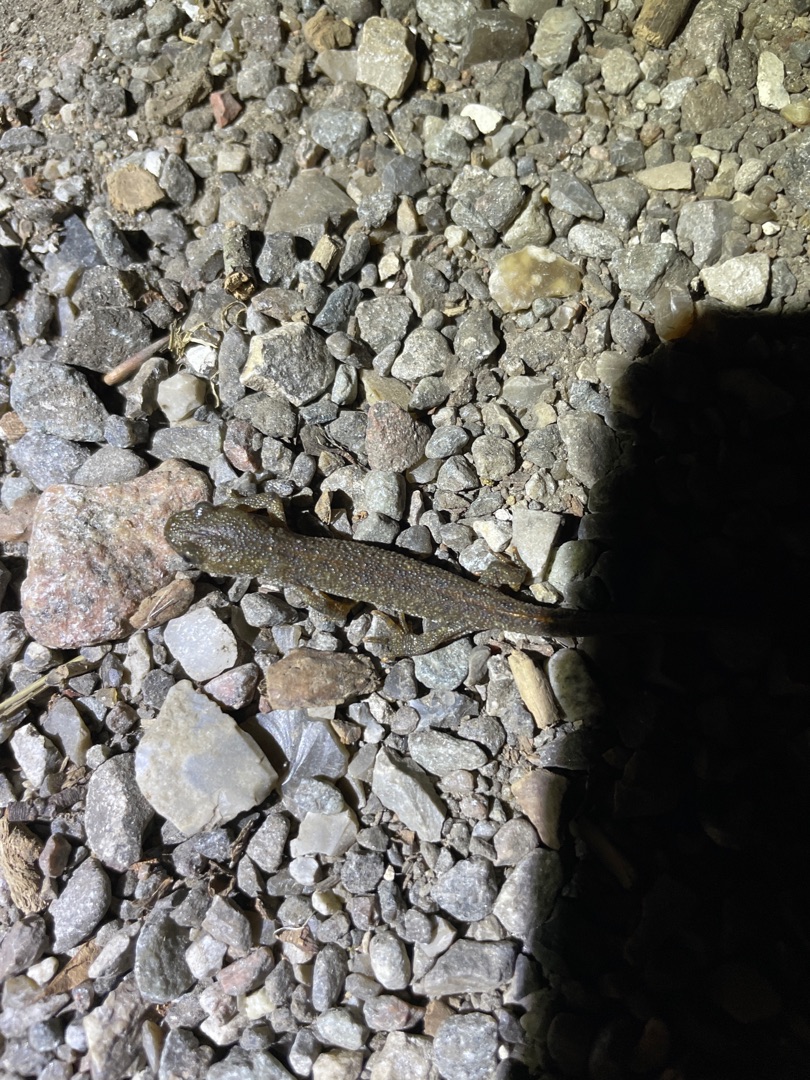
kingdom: Animalia
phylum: Chordata
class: Amphibia
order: Caudata
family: Salamandridae
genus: Triturus
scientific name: Triturus cristatus
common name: Stor vandsalamander
